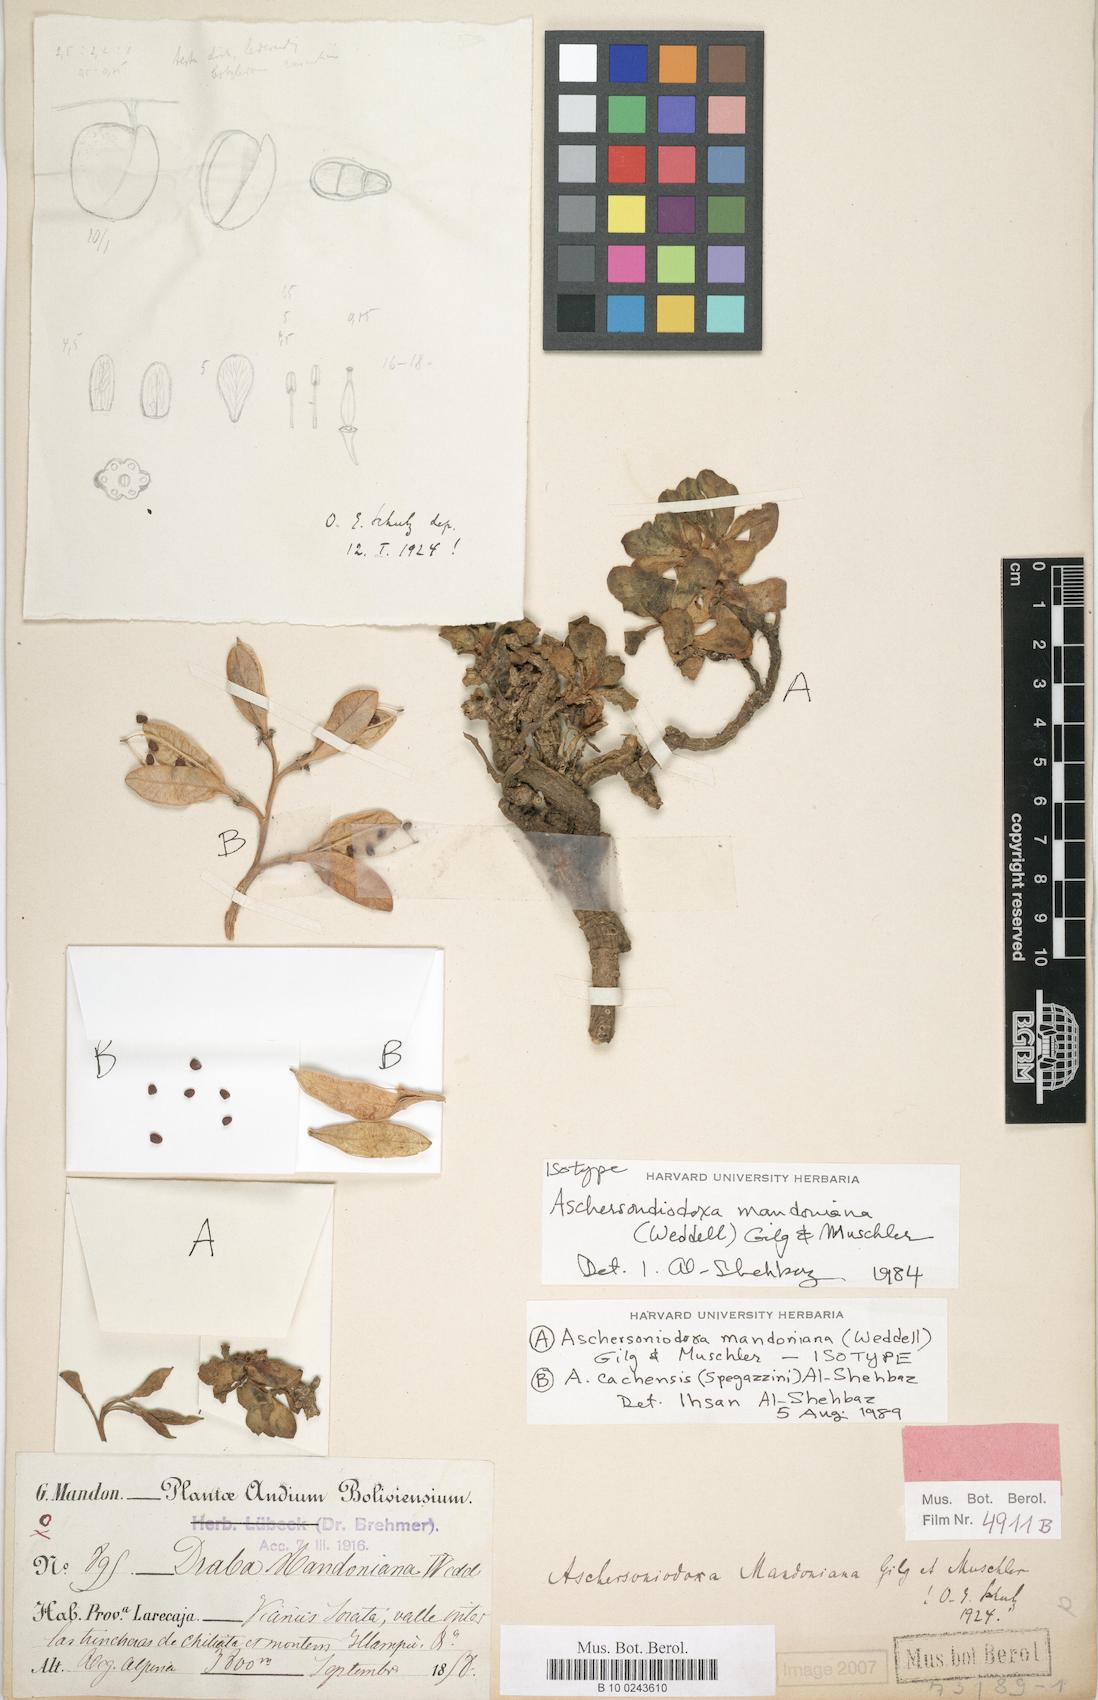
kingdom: Plantae
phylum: Tracheophyta
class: Magnoliopsida
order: Brassicales
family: Brassicaceae
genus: Aschersoniodoxa
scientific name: Aschersoniodoxa mandoniana
